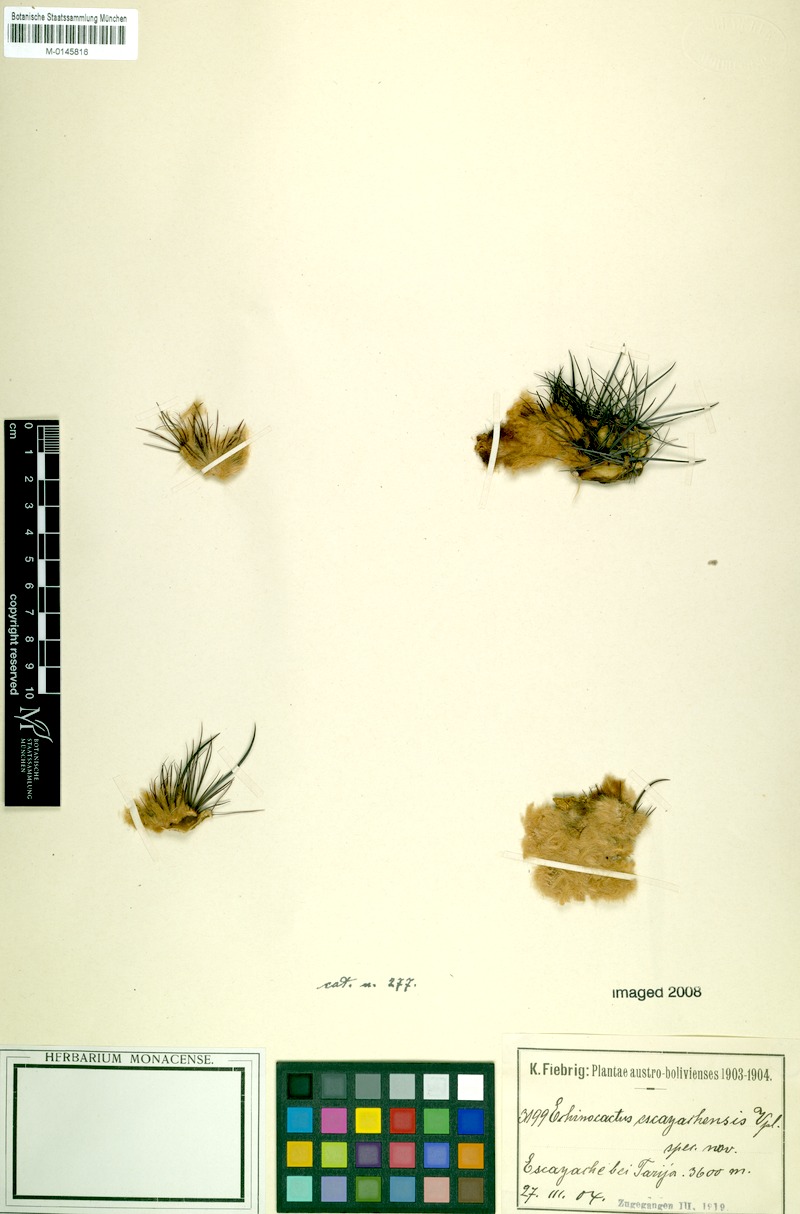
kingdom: Plantae
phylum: Tracheophyta
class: Magnoliopsida
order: Caryophyllales
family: Cactaceae
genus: Parodia
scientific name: Parodia maassii
